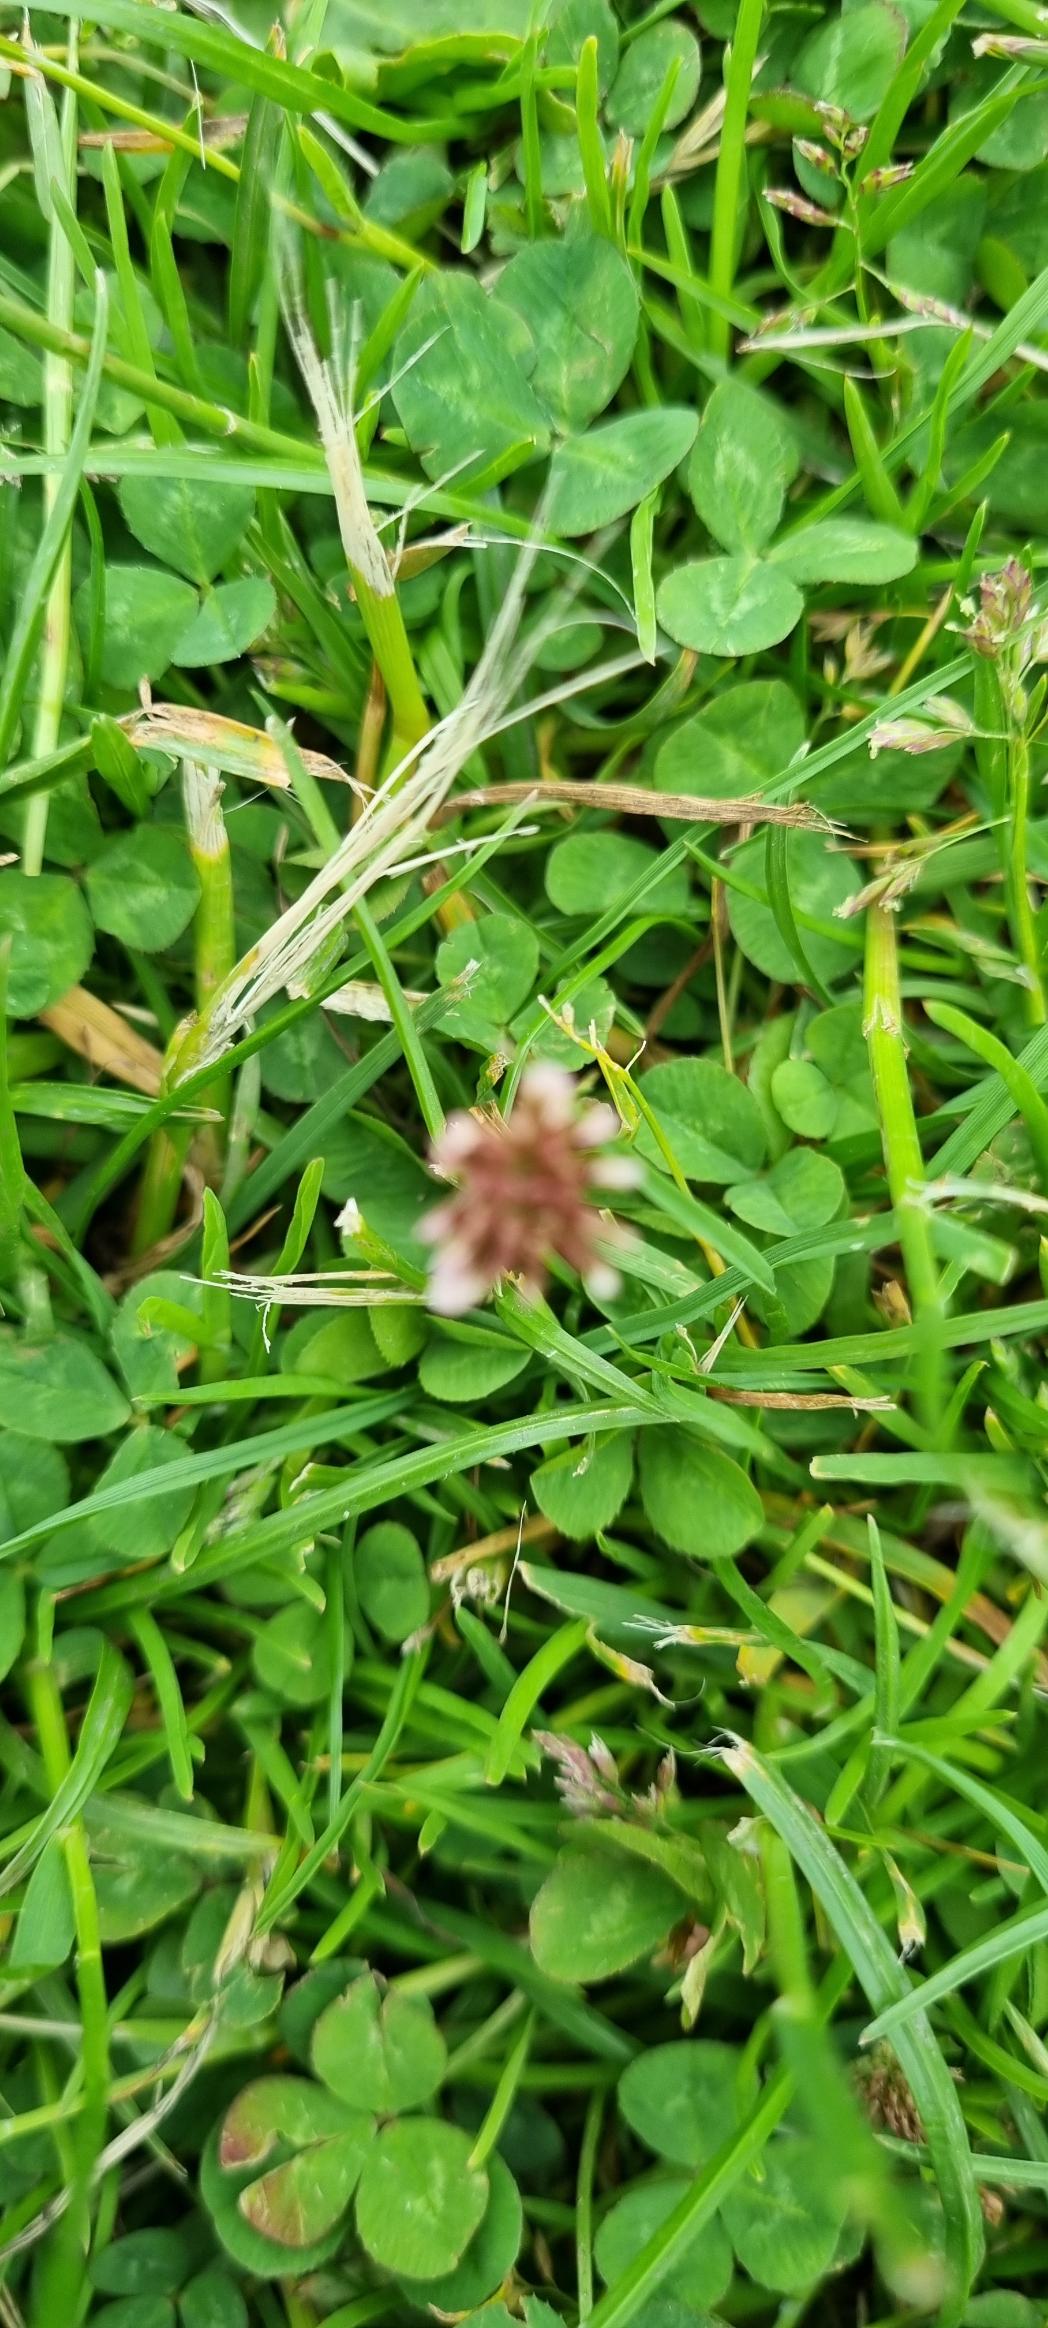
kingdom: Plantae
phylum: Tracheophyta
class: Magnoliopsida
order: Fabales
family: Fabaceae
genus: Trifolium
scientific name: Trifolium repens
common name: Hvid-kløver
